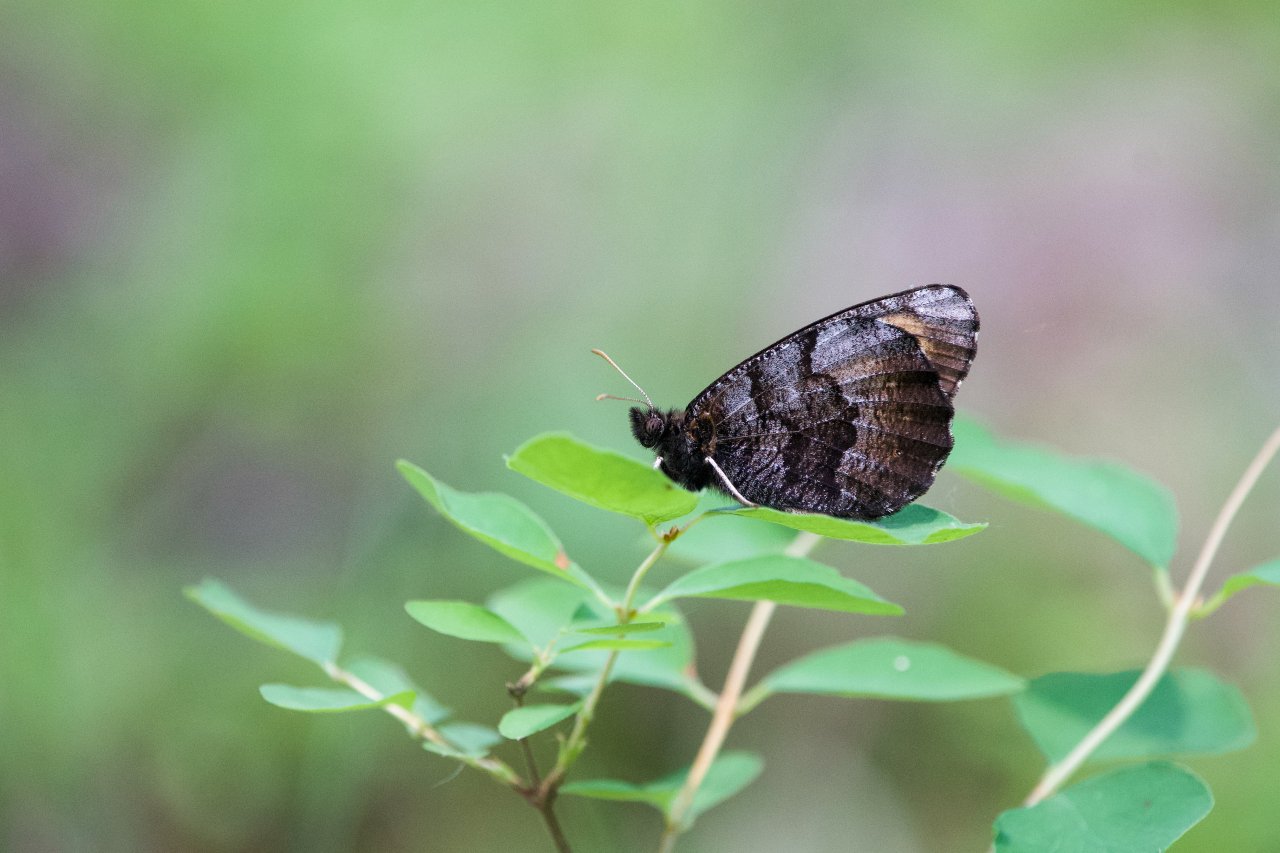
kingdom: Animalia
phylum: Arthropoda
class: Insecta
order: Lepidoptera
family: Nymphalidae
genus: Oeneis
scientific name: Oeneis macounii
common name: Macoun's Arctic
